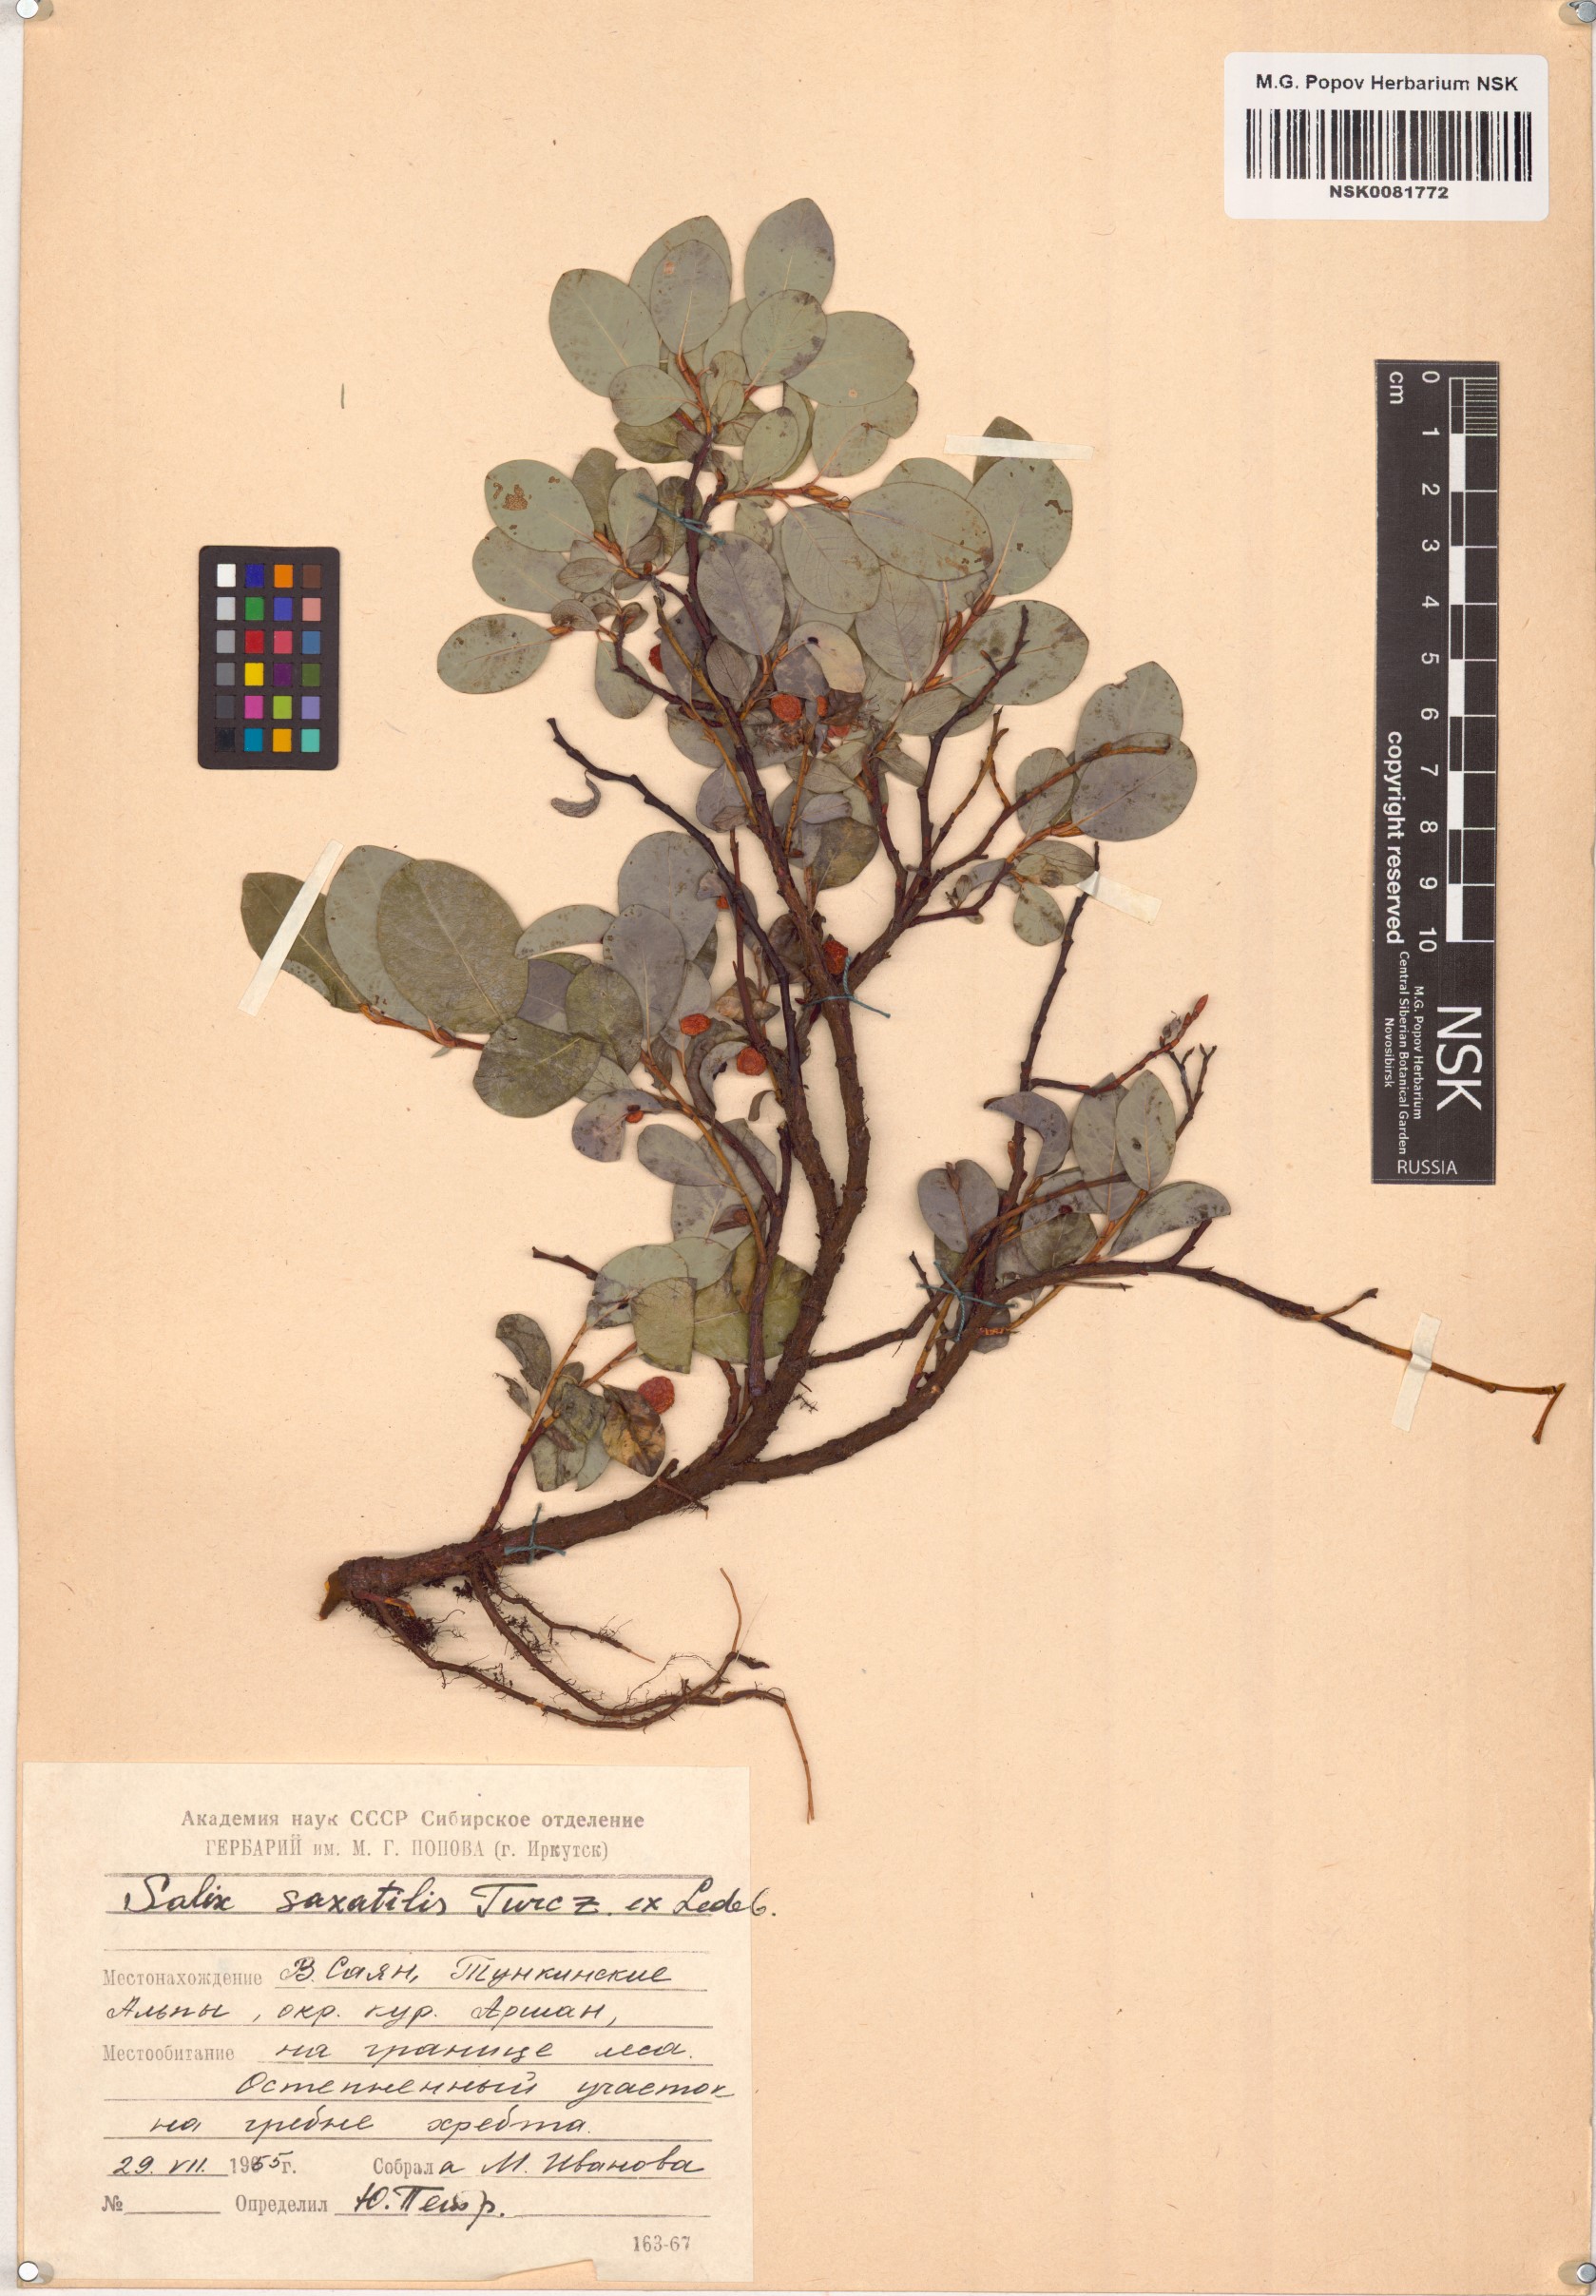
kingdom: Plantae
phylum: Tracheophyta
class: Magnoliopsida
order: Malpighiales
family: Salicaceae
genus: Salix
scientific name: Salix saxatilis
